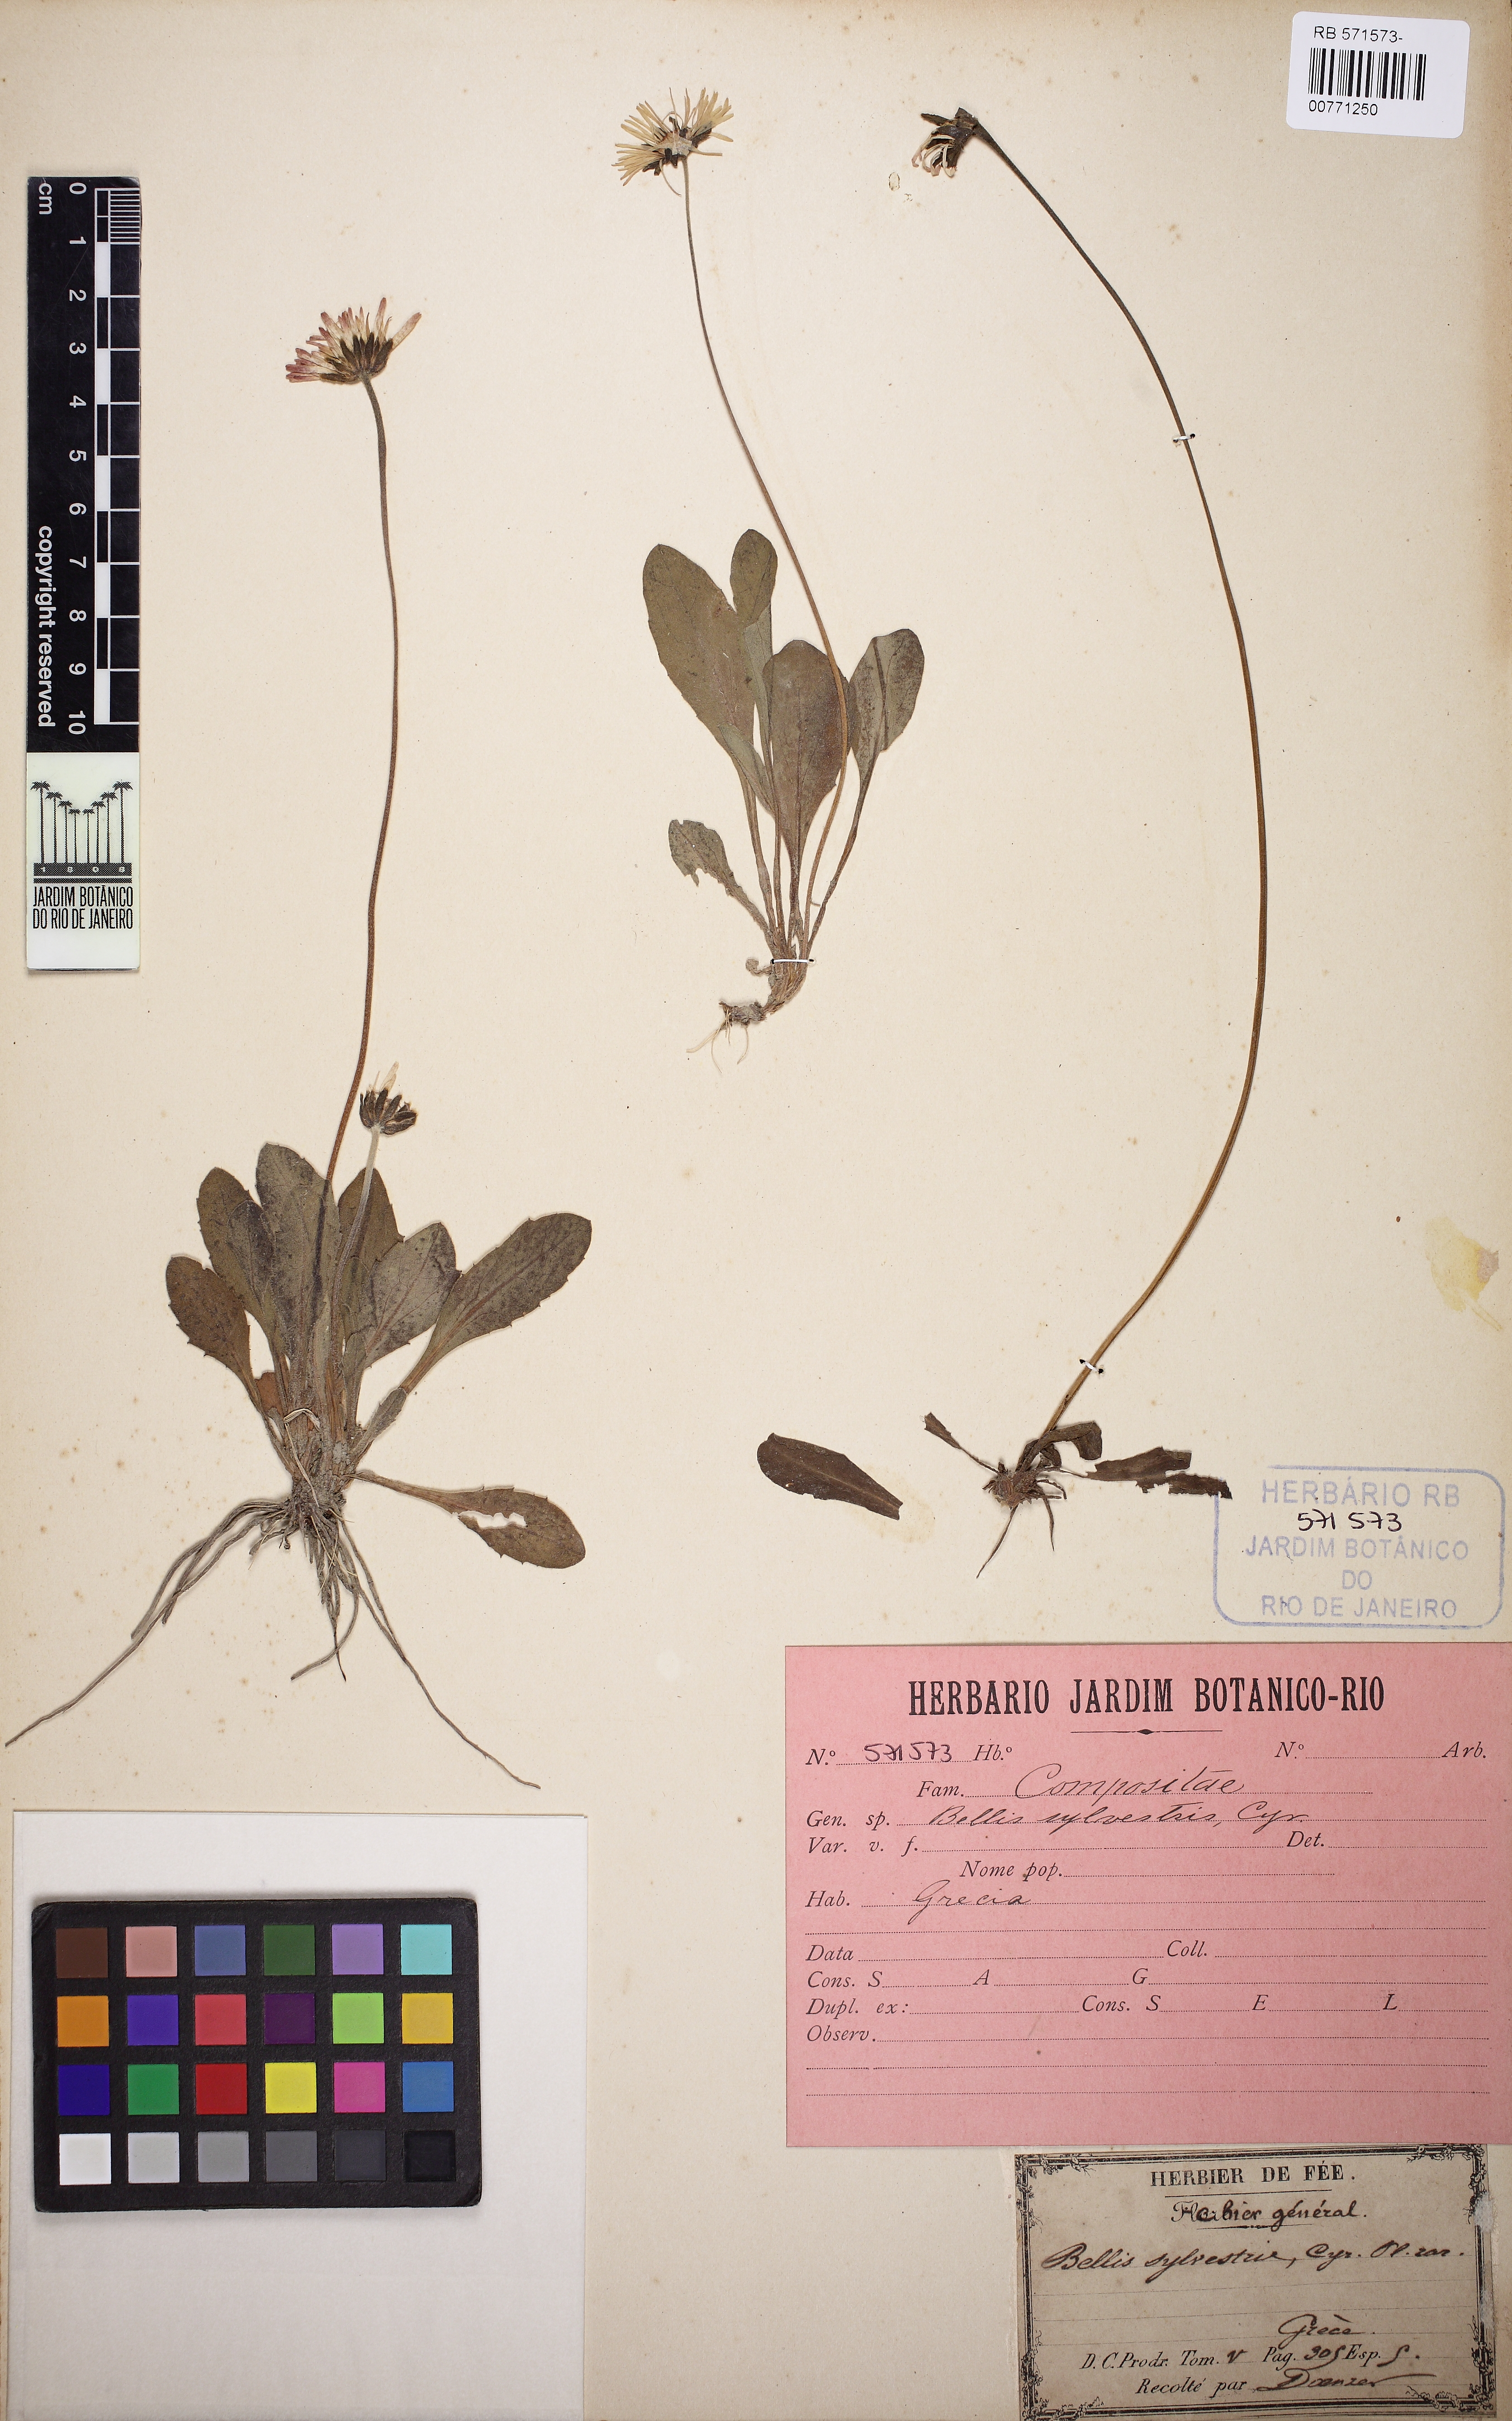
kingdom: Plantae
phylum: Tracheophyta
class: Magnoliopsida
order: Asterales
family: Asteraceae
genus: Bellis
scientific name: Bellis sylvestris
